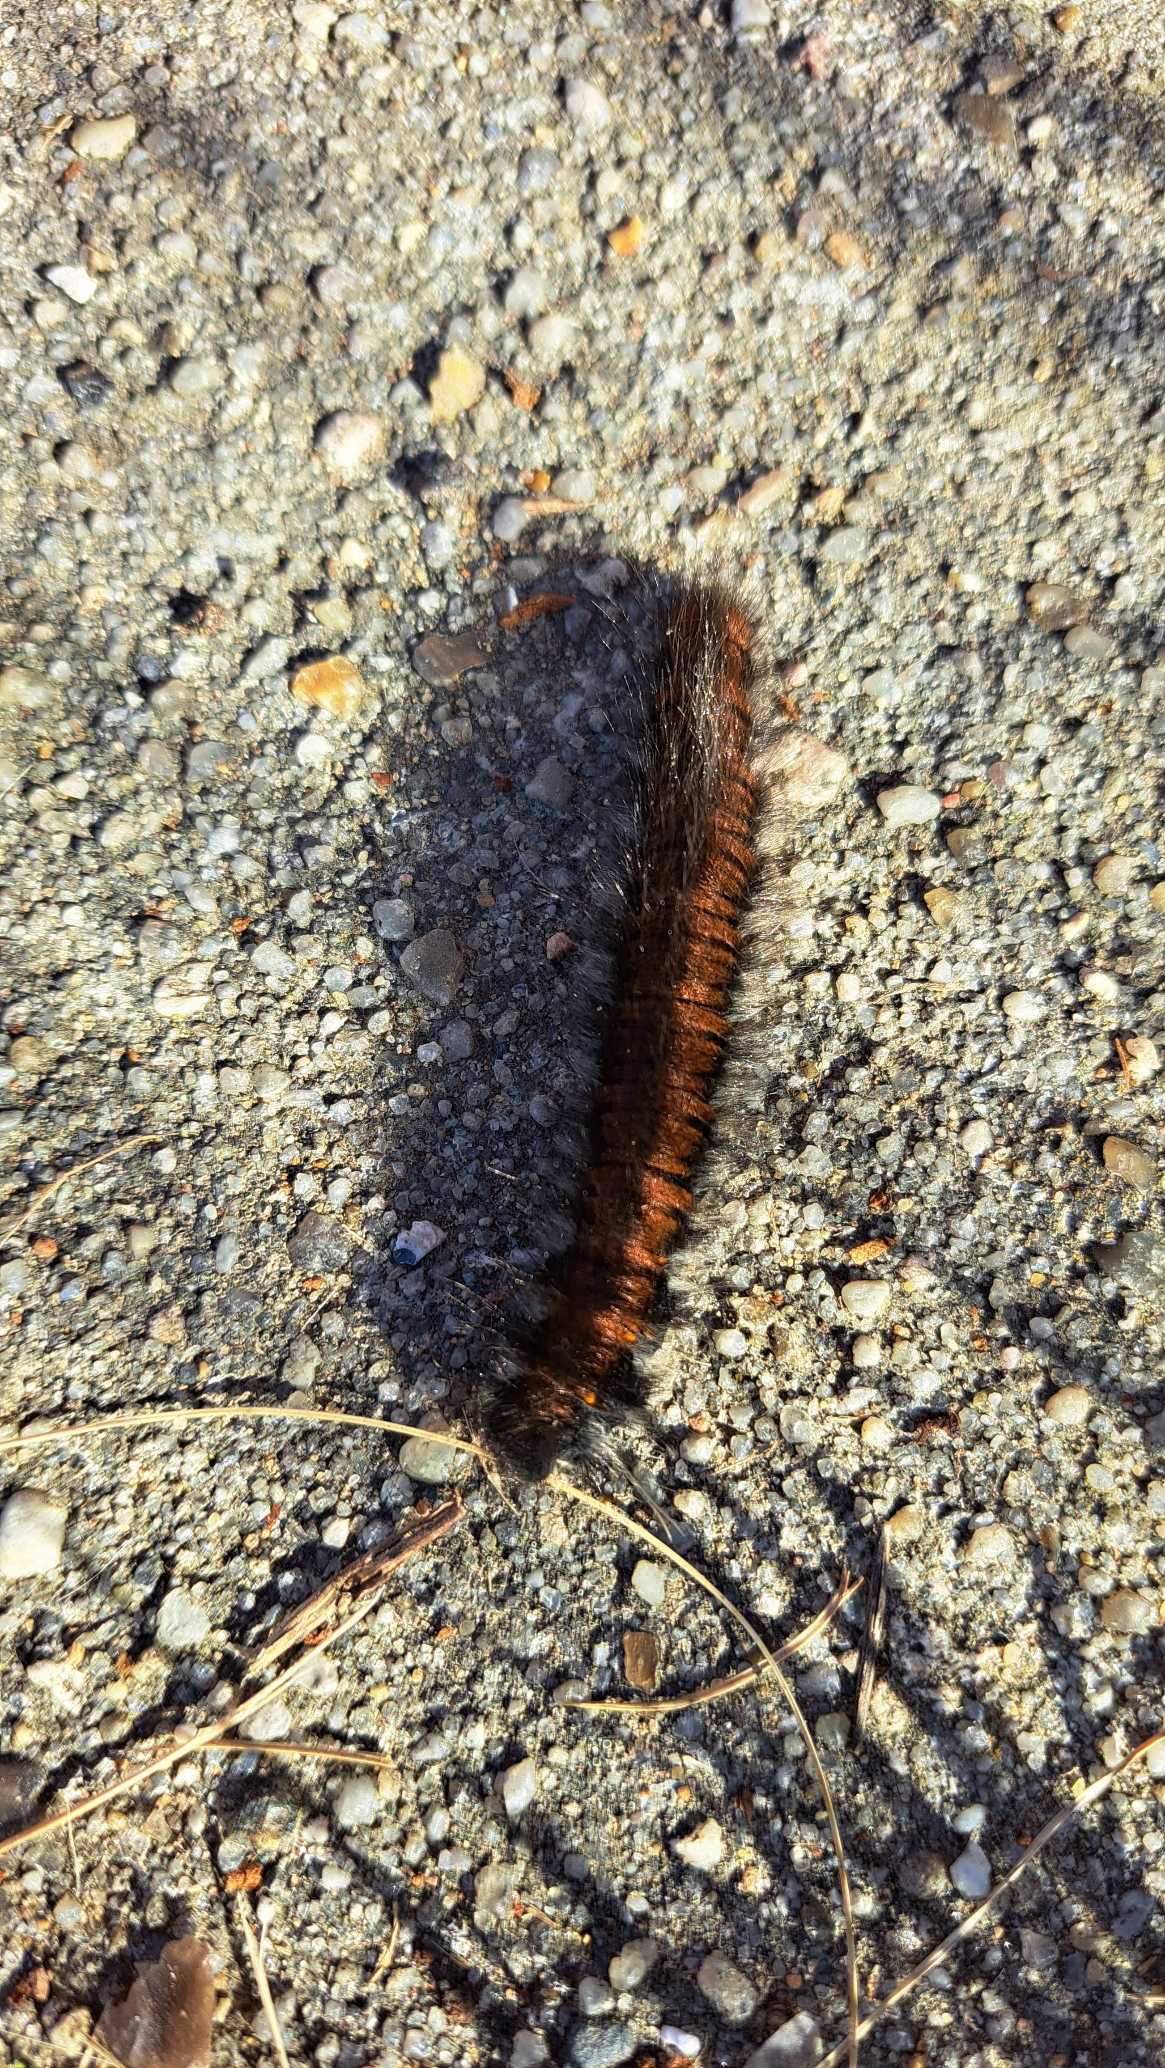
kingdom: Animalia
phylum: Arthropoda
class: Insecta
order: Lepidoptera
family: Lasiocampidae
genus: Macrothylacia
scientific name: Macrothylacia rubi
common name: Brombærspinder
